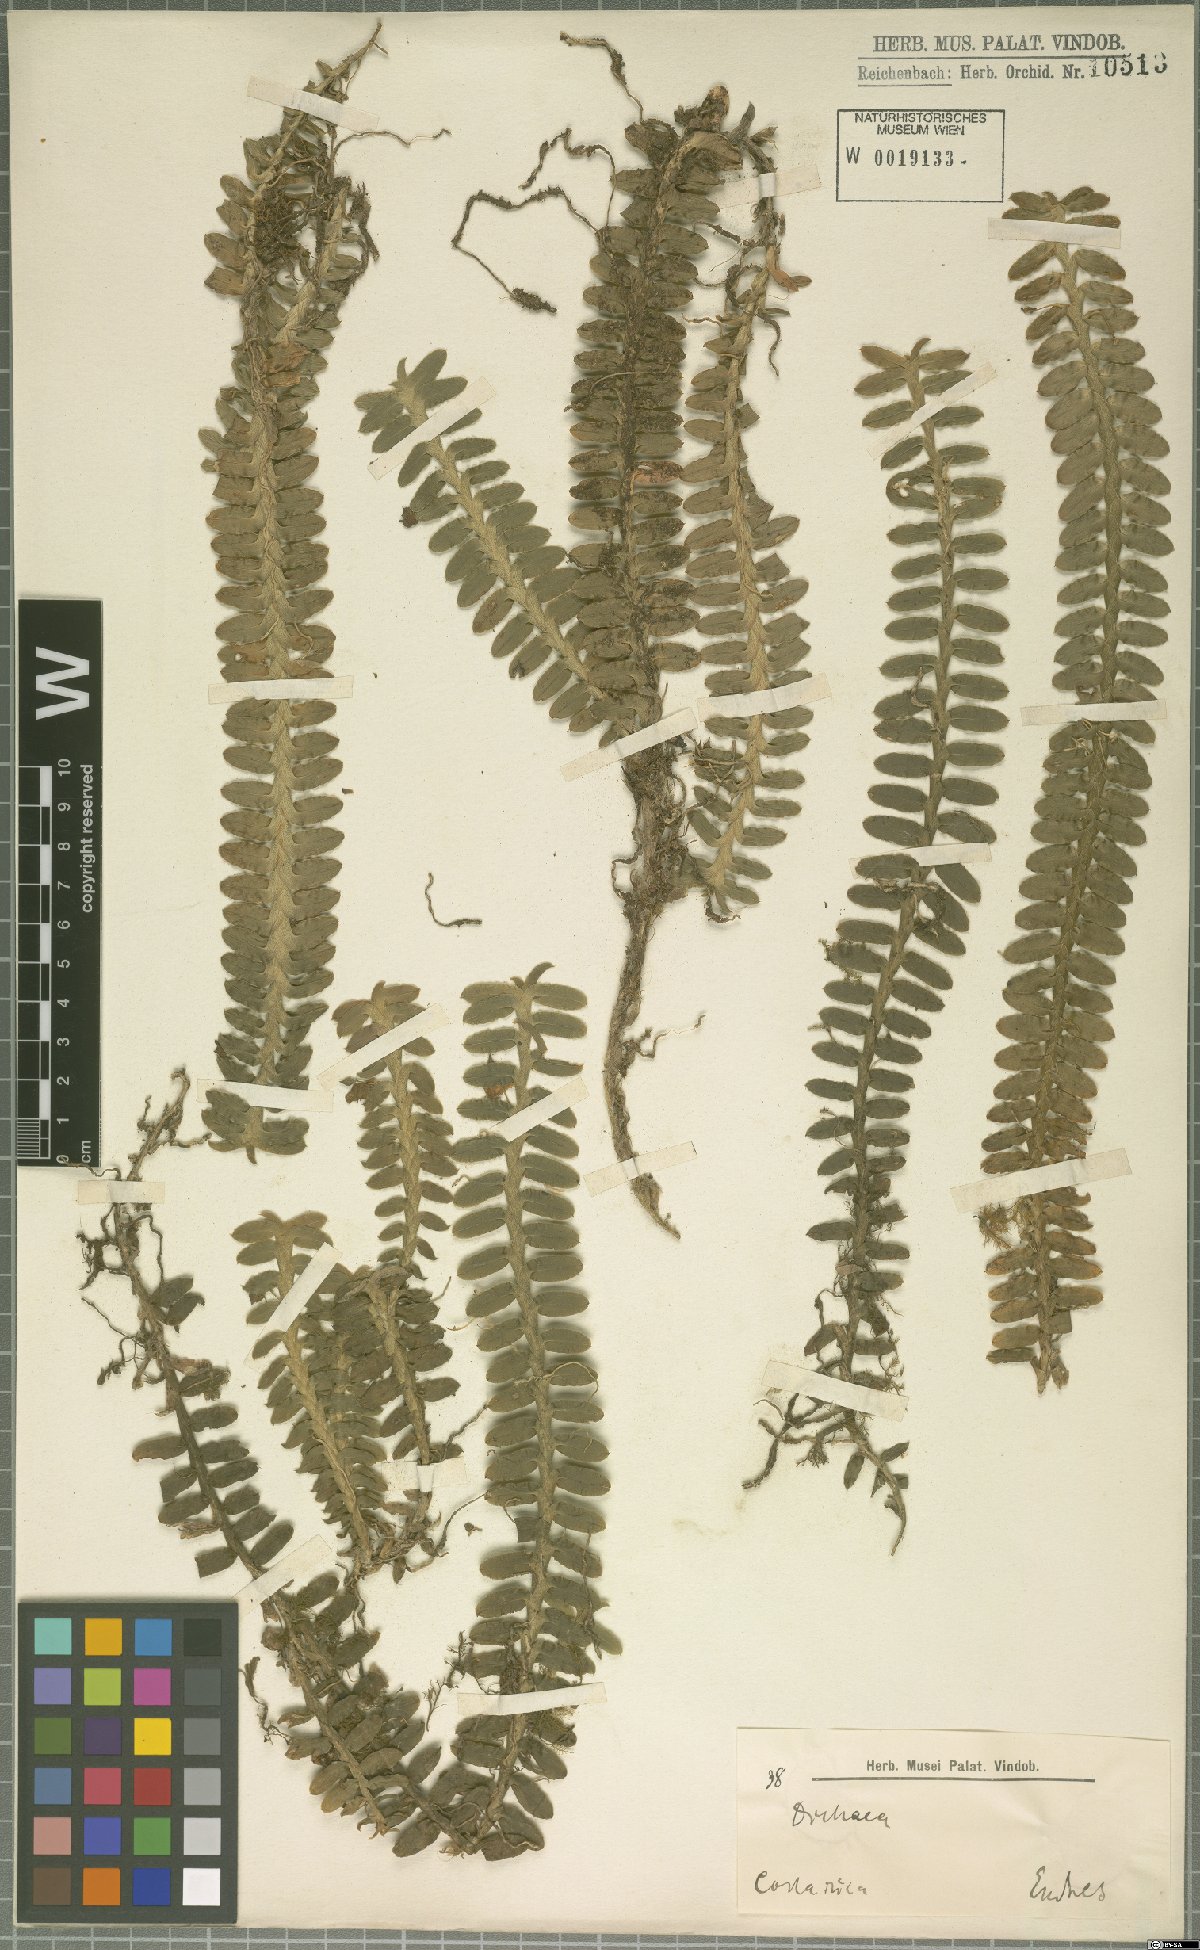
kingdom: Plantae
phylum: Tracheophyta
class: Liliopsida
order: Asparagales
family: Orchidaceae
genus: Dichaea
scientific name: Dichaea
